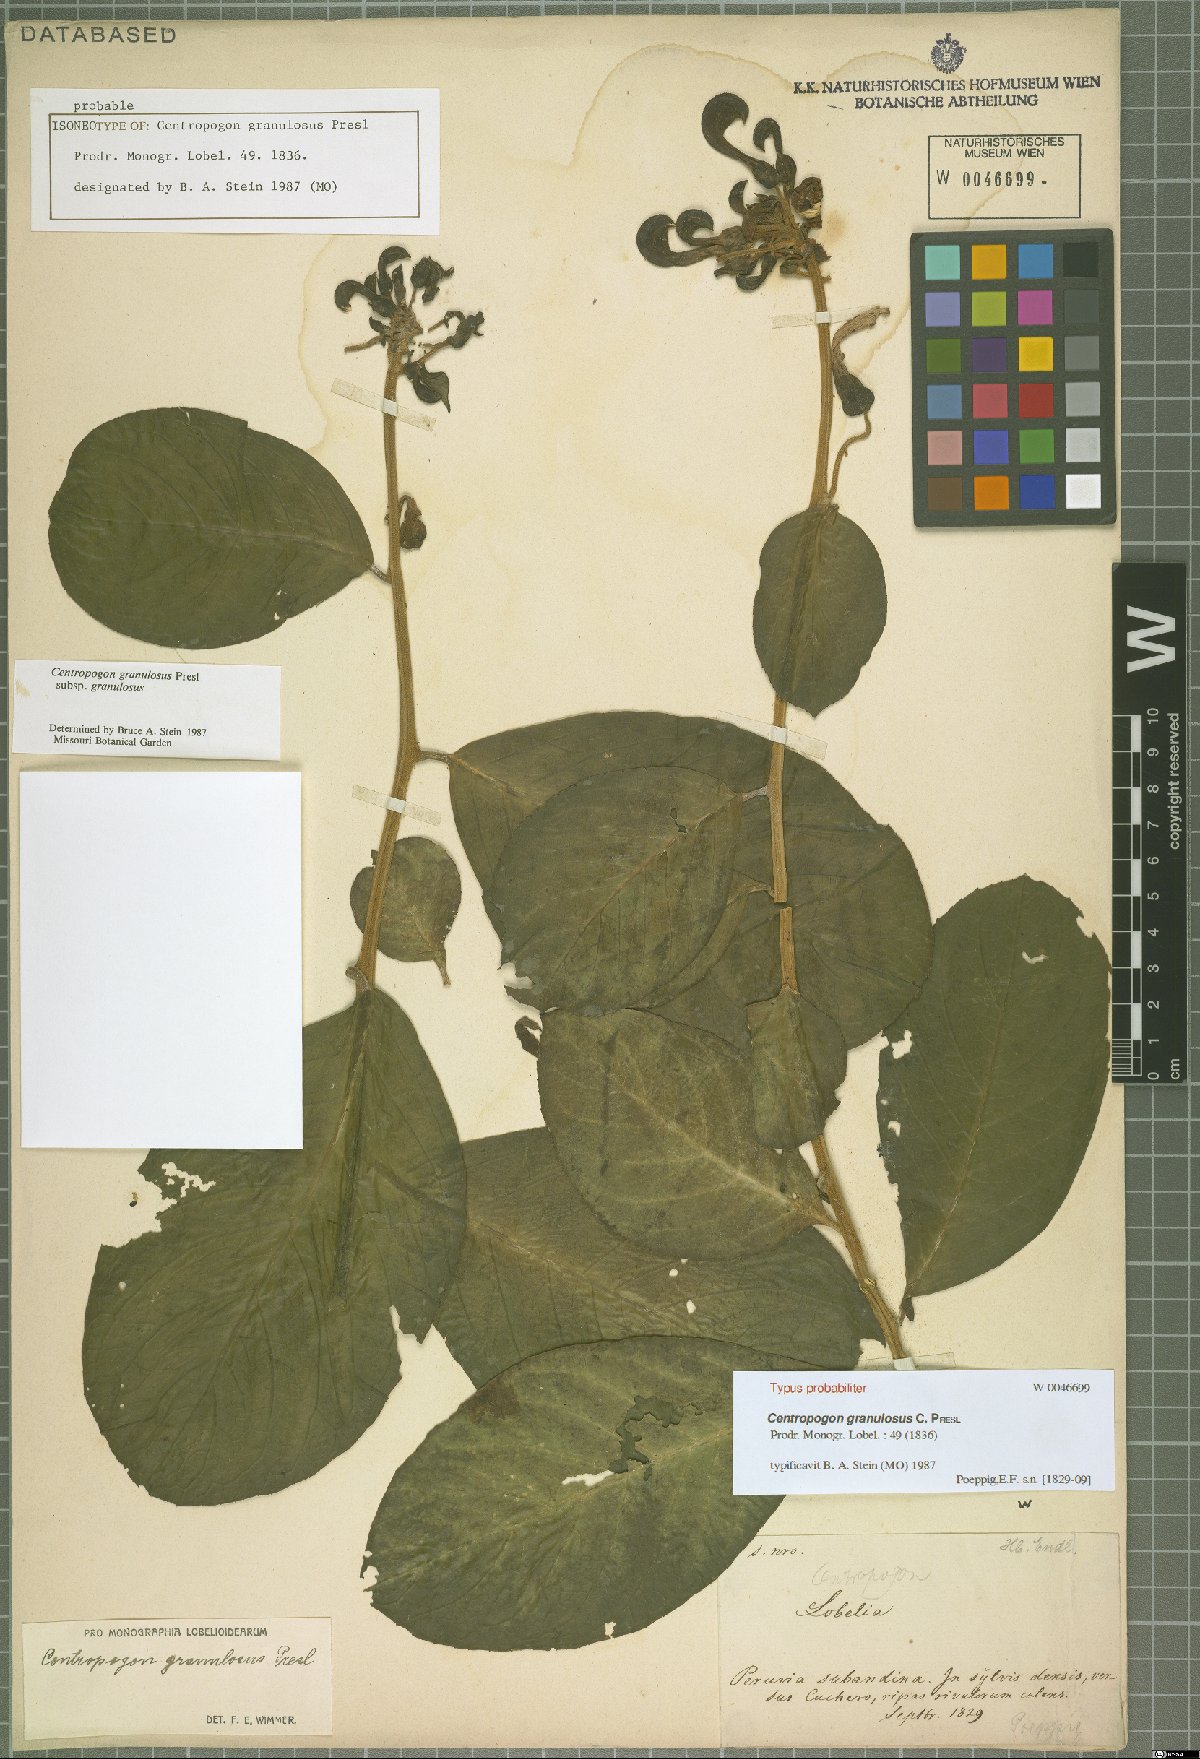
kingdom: Plantae
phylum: Tracheophyta
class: Magnoliopsida
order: Asterales
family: Campanulaceae
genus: Centropogon
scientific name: Centropogon granulosus
